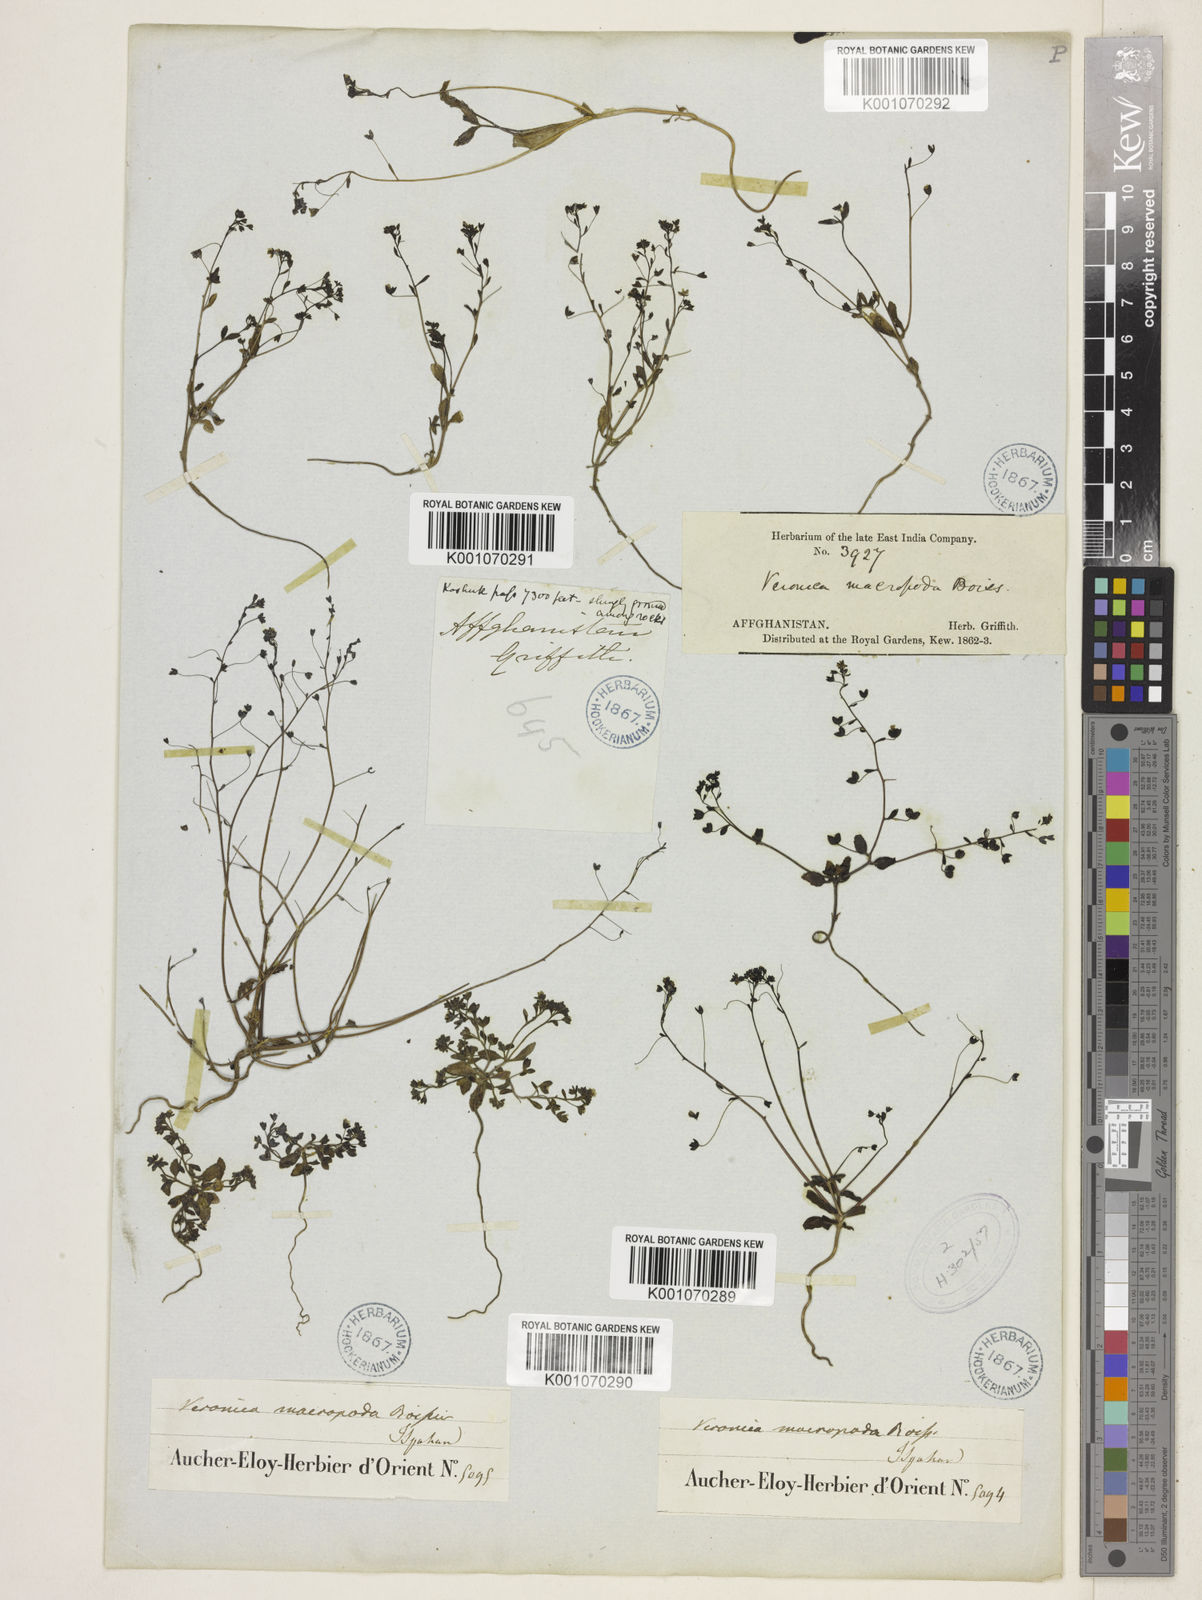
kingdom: Plantae
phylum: Tracheophyta
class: Magnoliopsida
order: Lamiales
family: Plantaginaceae
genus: Veronica
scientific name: Veronica macropoda
